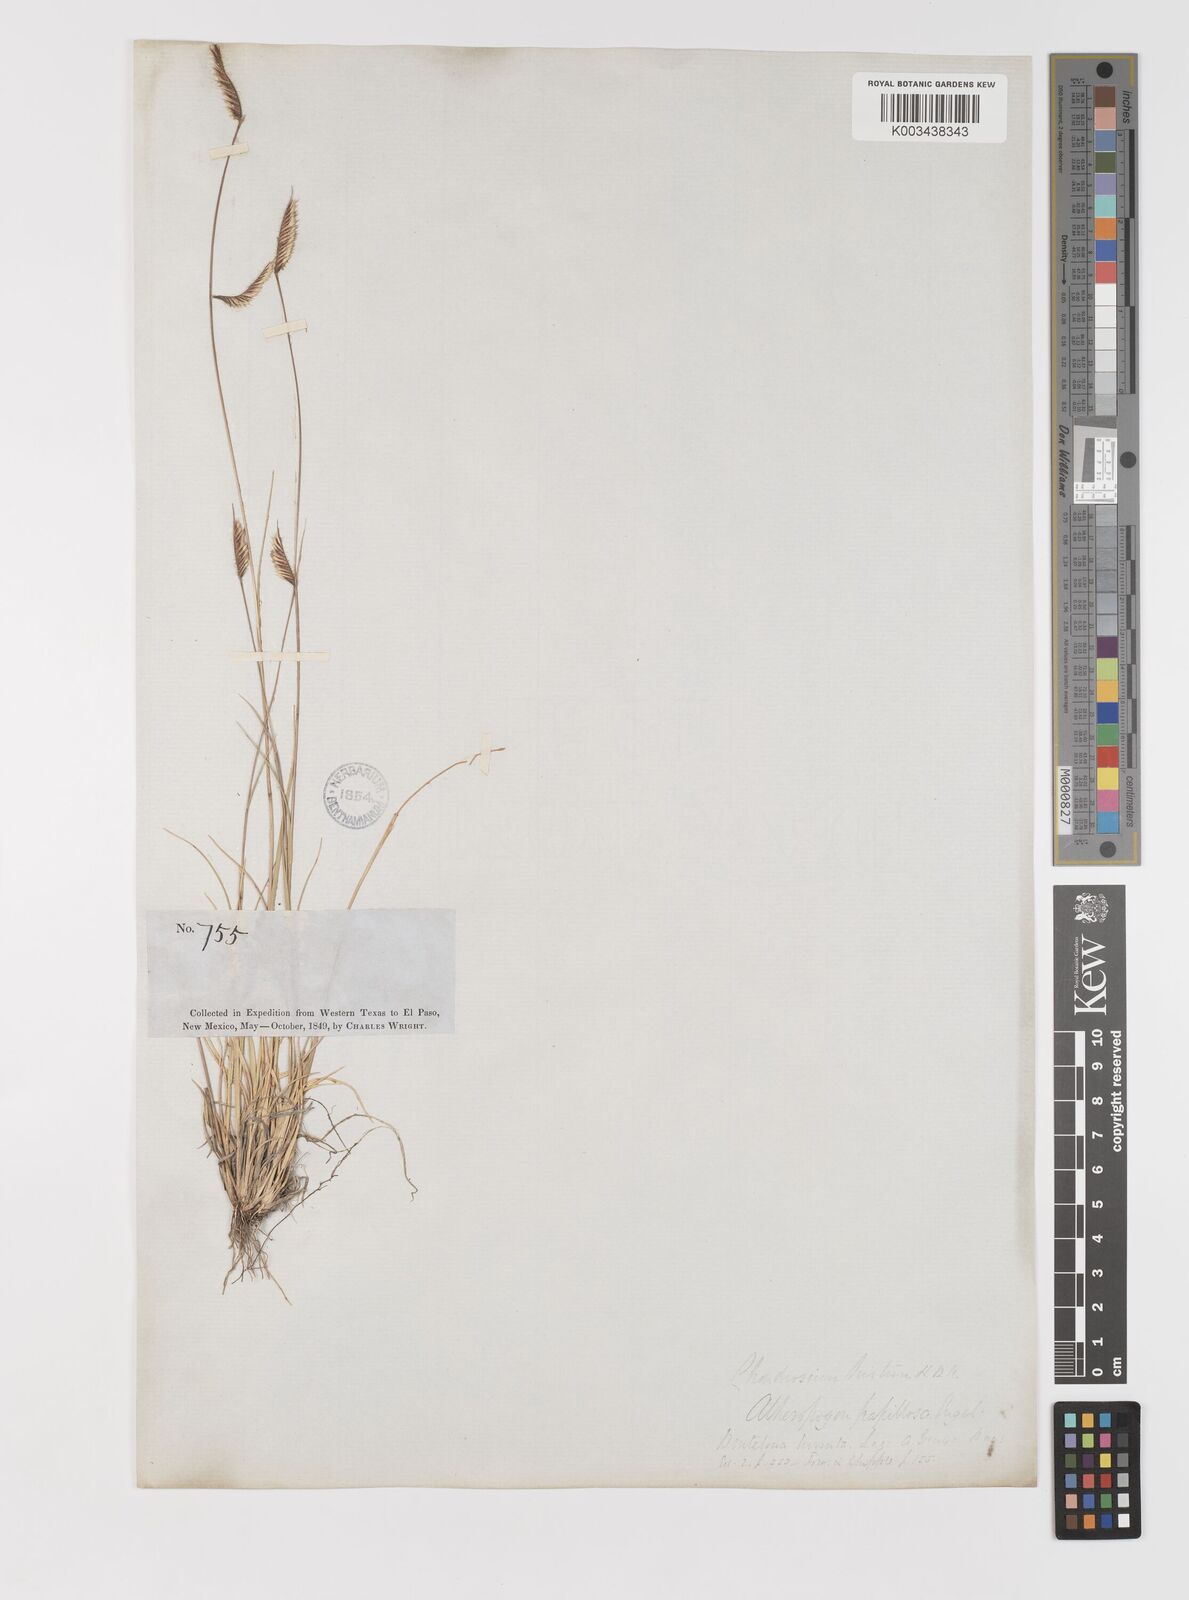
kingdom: Plantae
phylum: Tracheophyta
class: Liliopsida
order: Poales
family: Poaceae
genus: Bouteloua
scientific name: Bouteloua hirsuta
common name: Hairy grama
